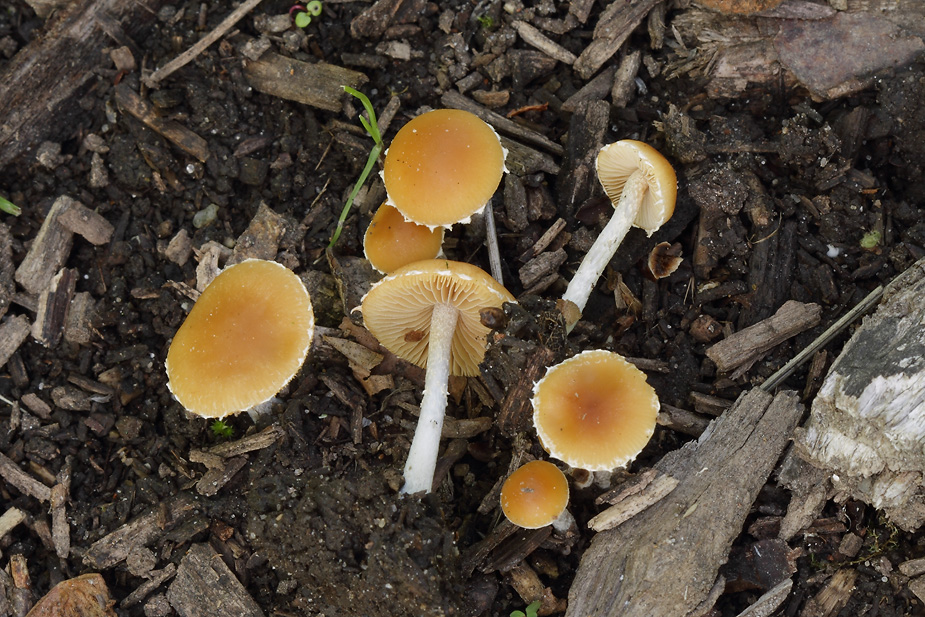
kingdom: Fungi
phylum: Basidiomycota
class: Agaricomycetes
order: Agaricales
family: Bolbitiaceae
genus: Conocybe
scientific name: Conocybe velata
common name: tandet dansehat
